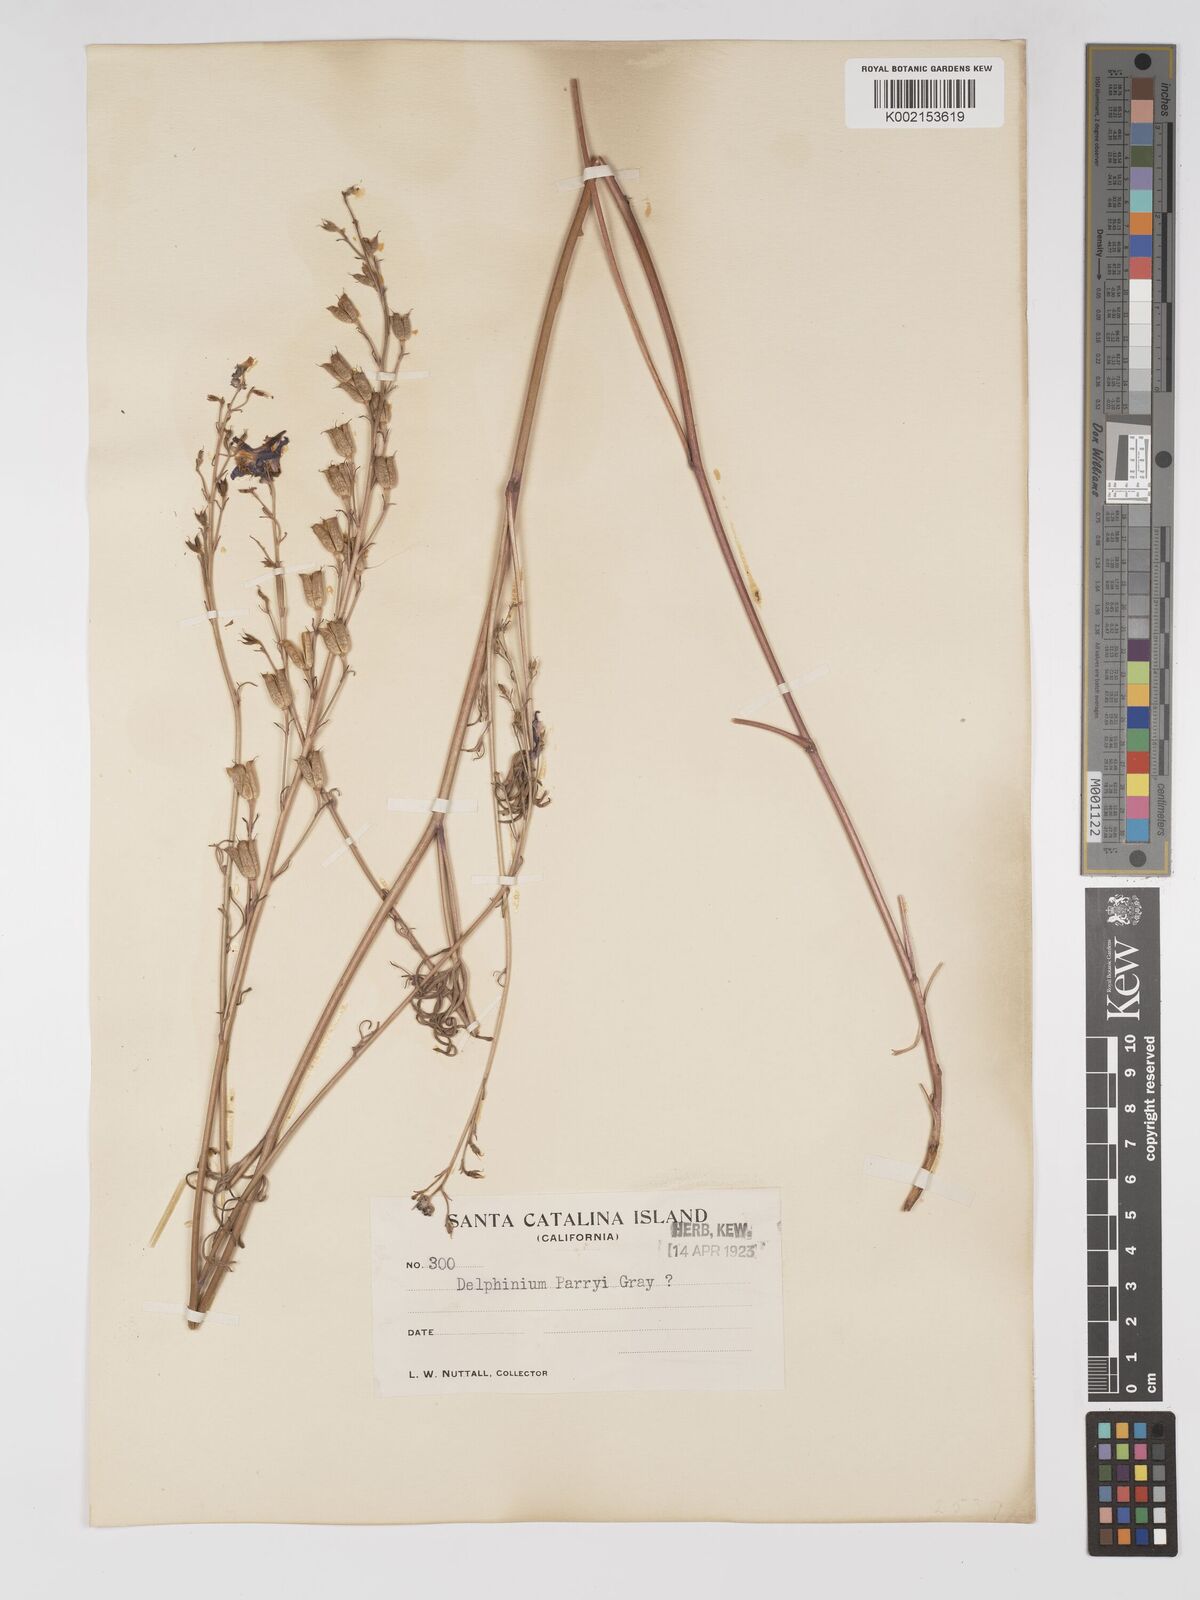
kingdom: Plantae
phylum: Tracheophyta
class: Magnoliopsida
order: Ranunculales
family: Ranunculaceae
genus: Delphinium
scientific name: Delphinium parryi
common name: Parry's larkspur
